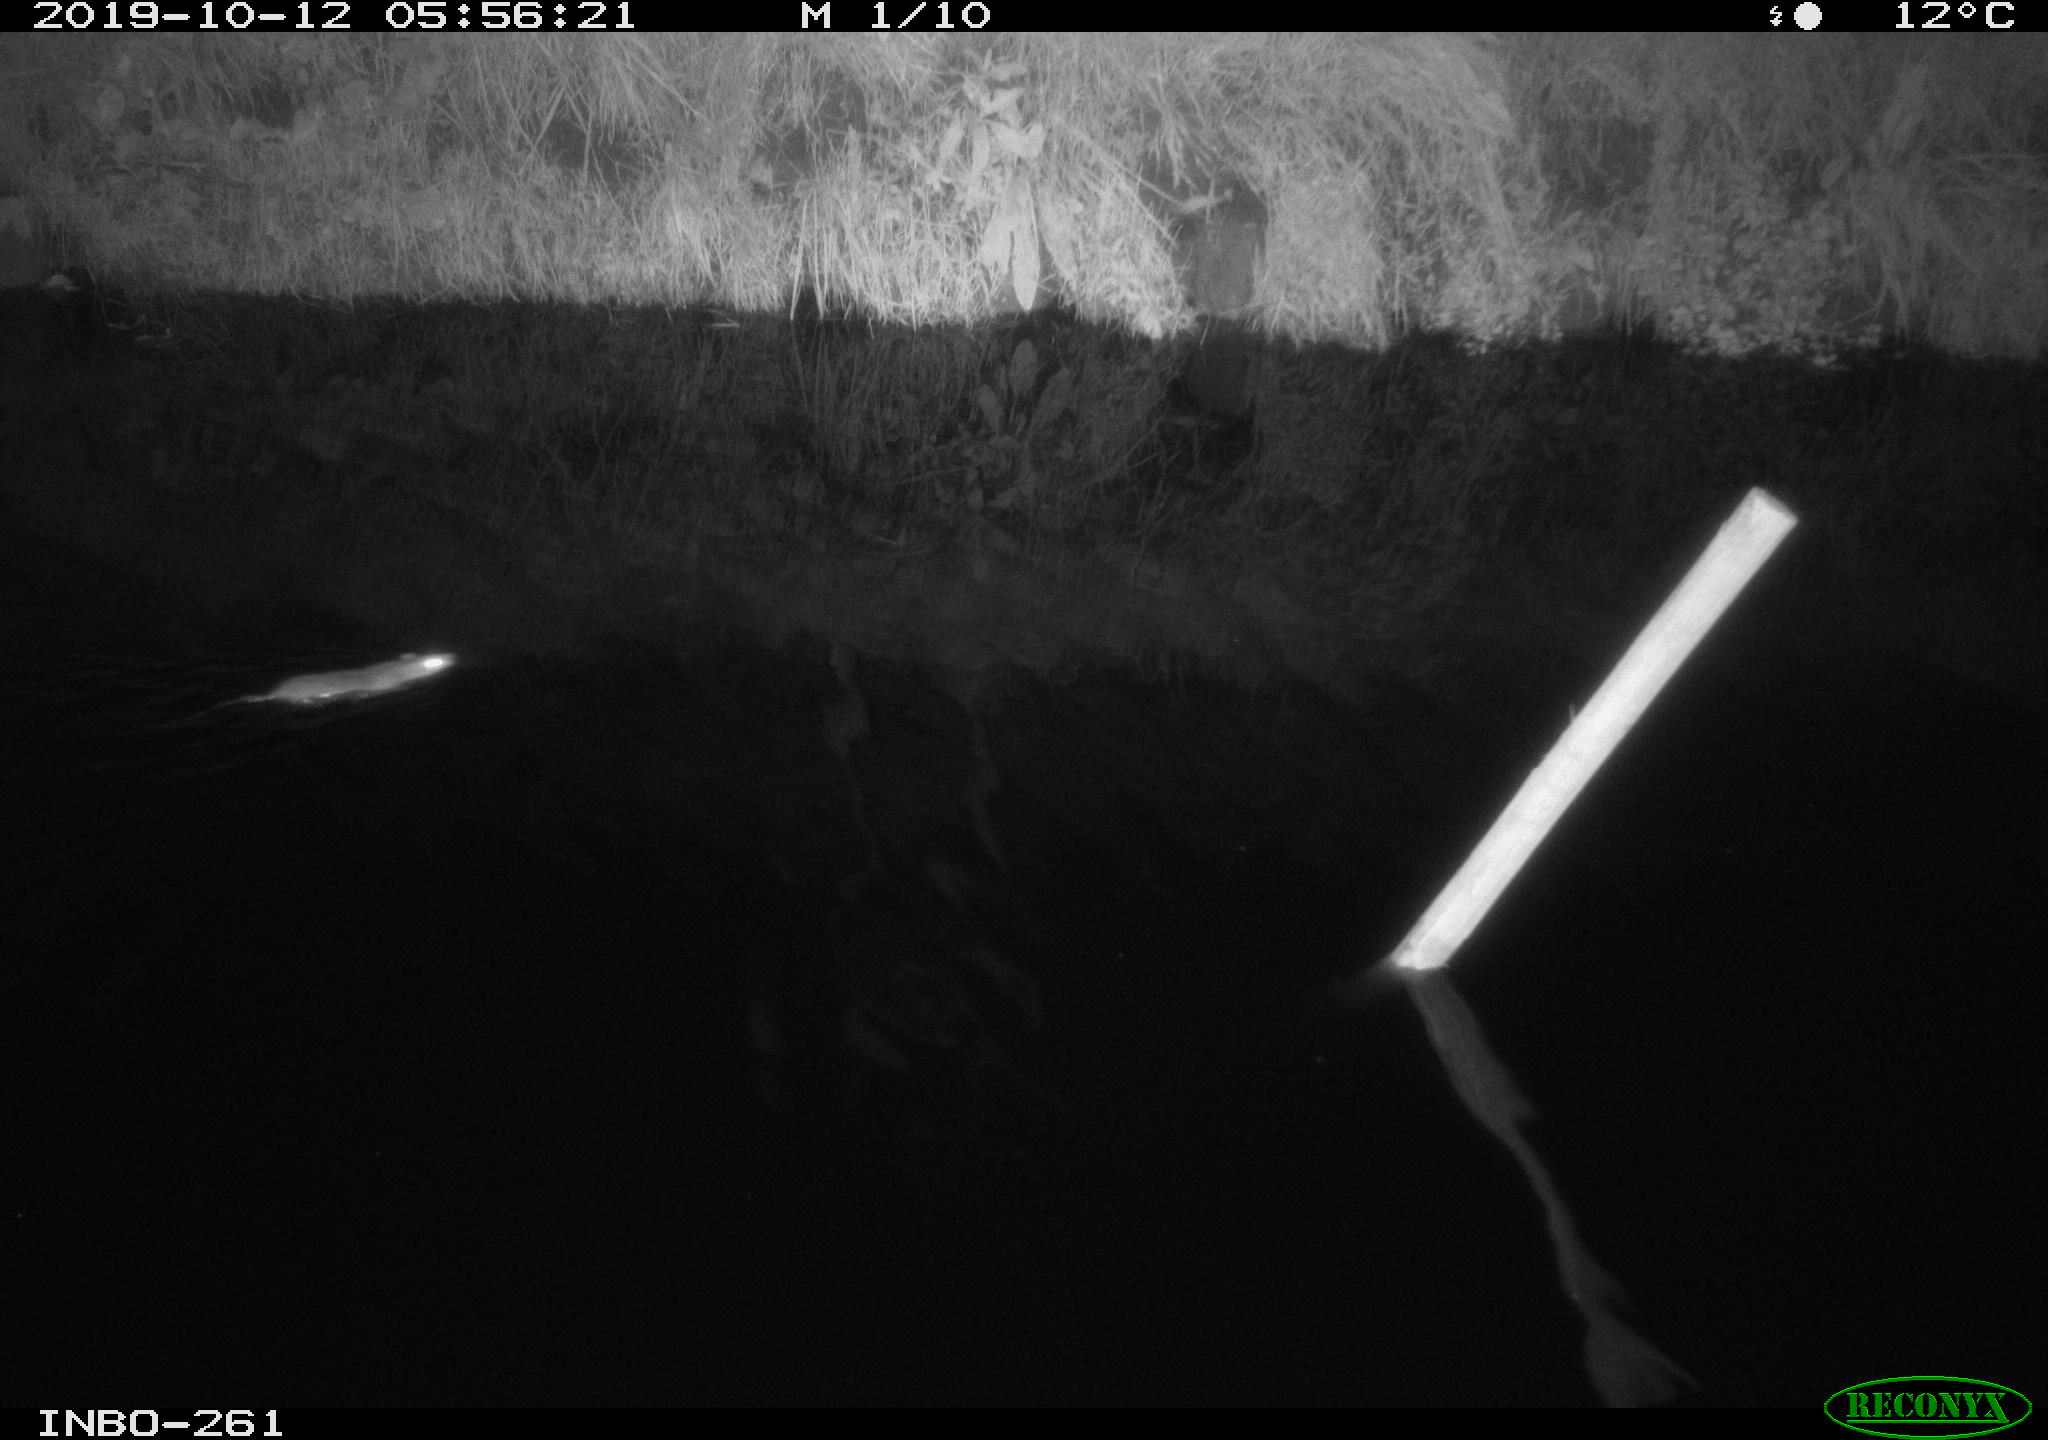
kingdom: Animalia
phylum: Chordata
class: Mammalia
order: Rodentia
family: Muridae
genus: Rattus
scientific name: Rattus norvegicus
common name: Brown rat
